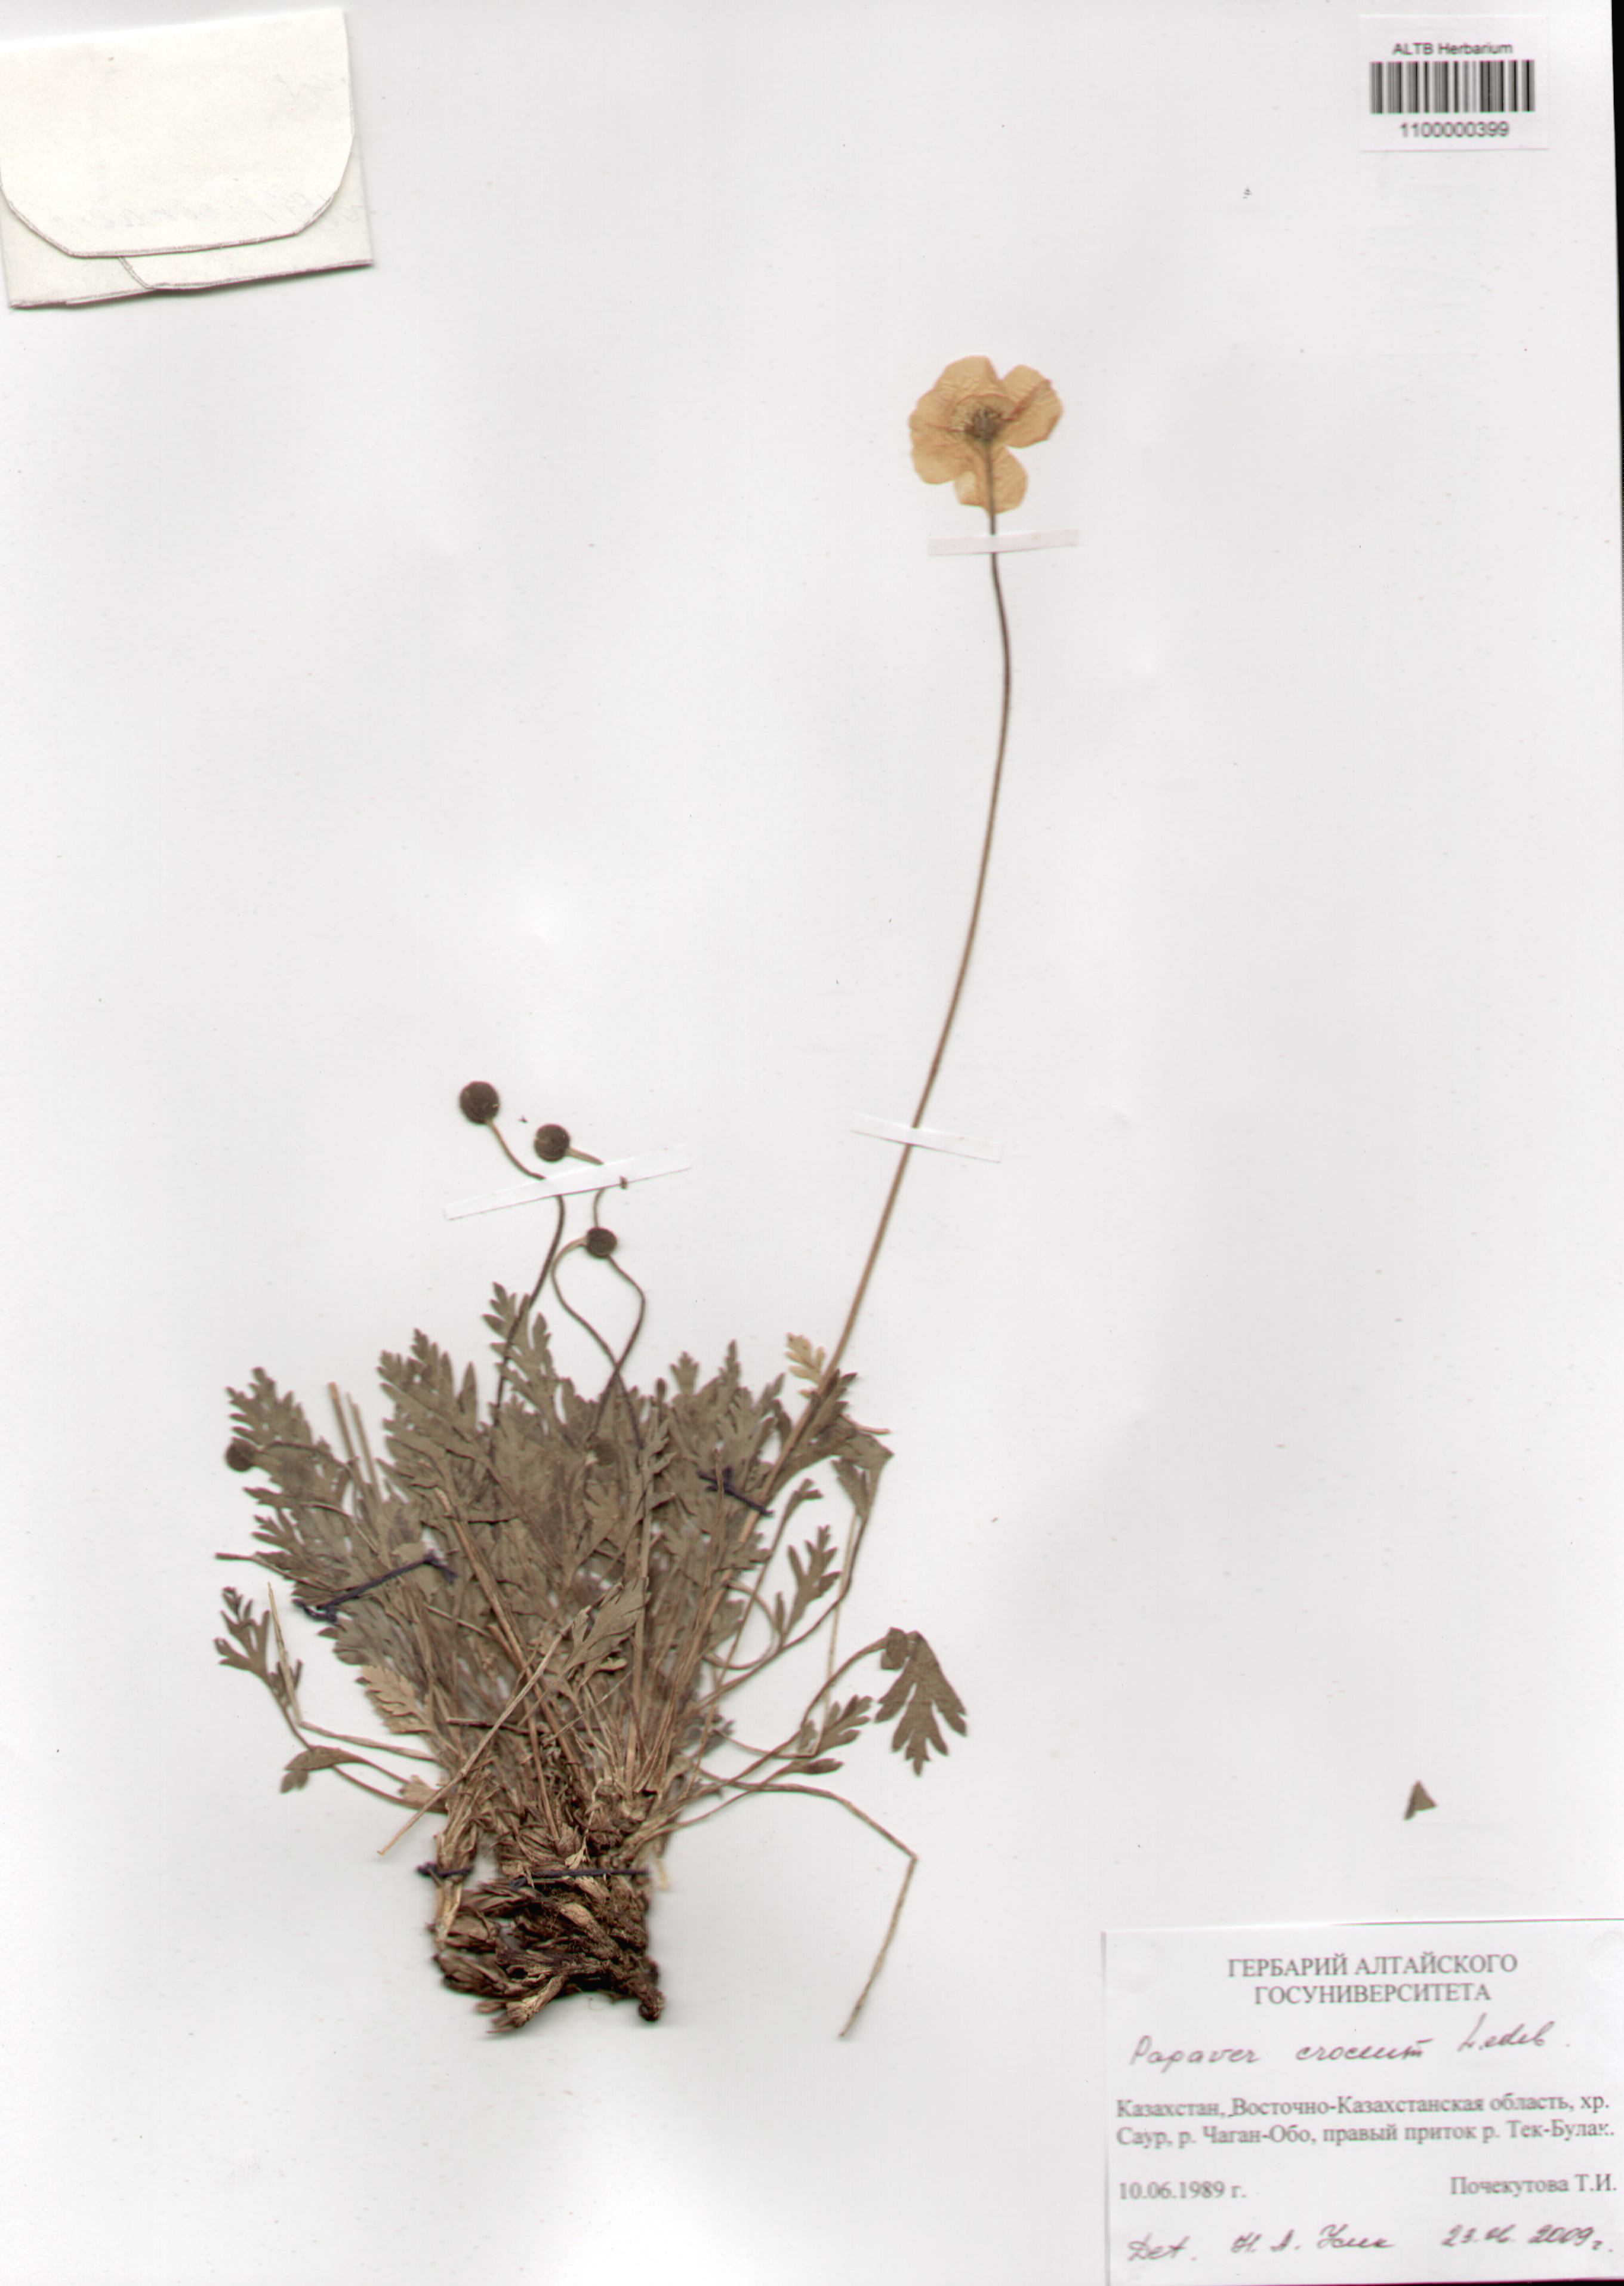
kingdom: Plantae
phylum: Tracheophyta
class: Magnoliopsida
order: Ranunculales
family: Papaveraceae
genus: Papaver
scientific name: Papaver croceum
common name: Siberian poppy
